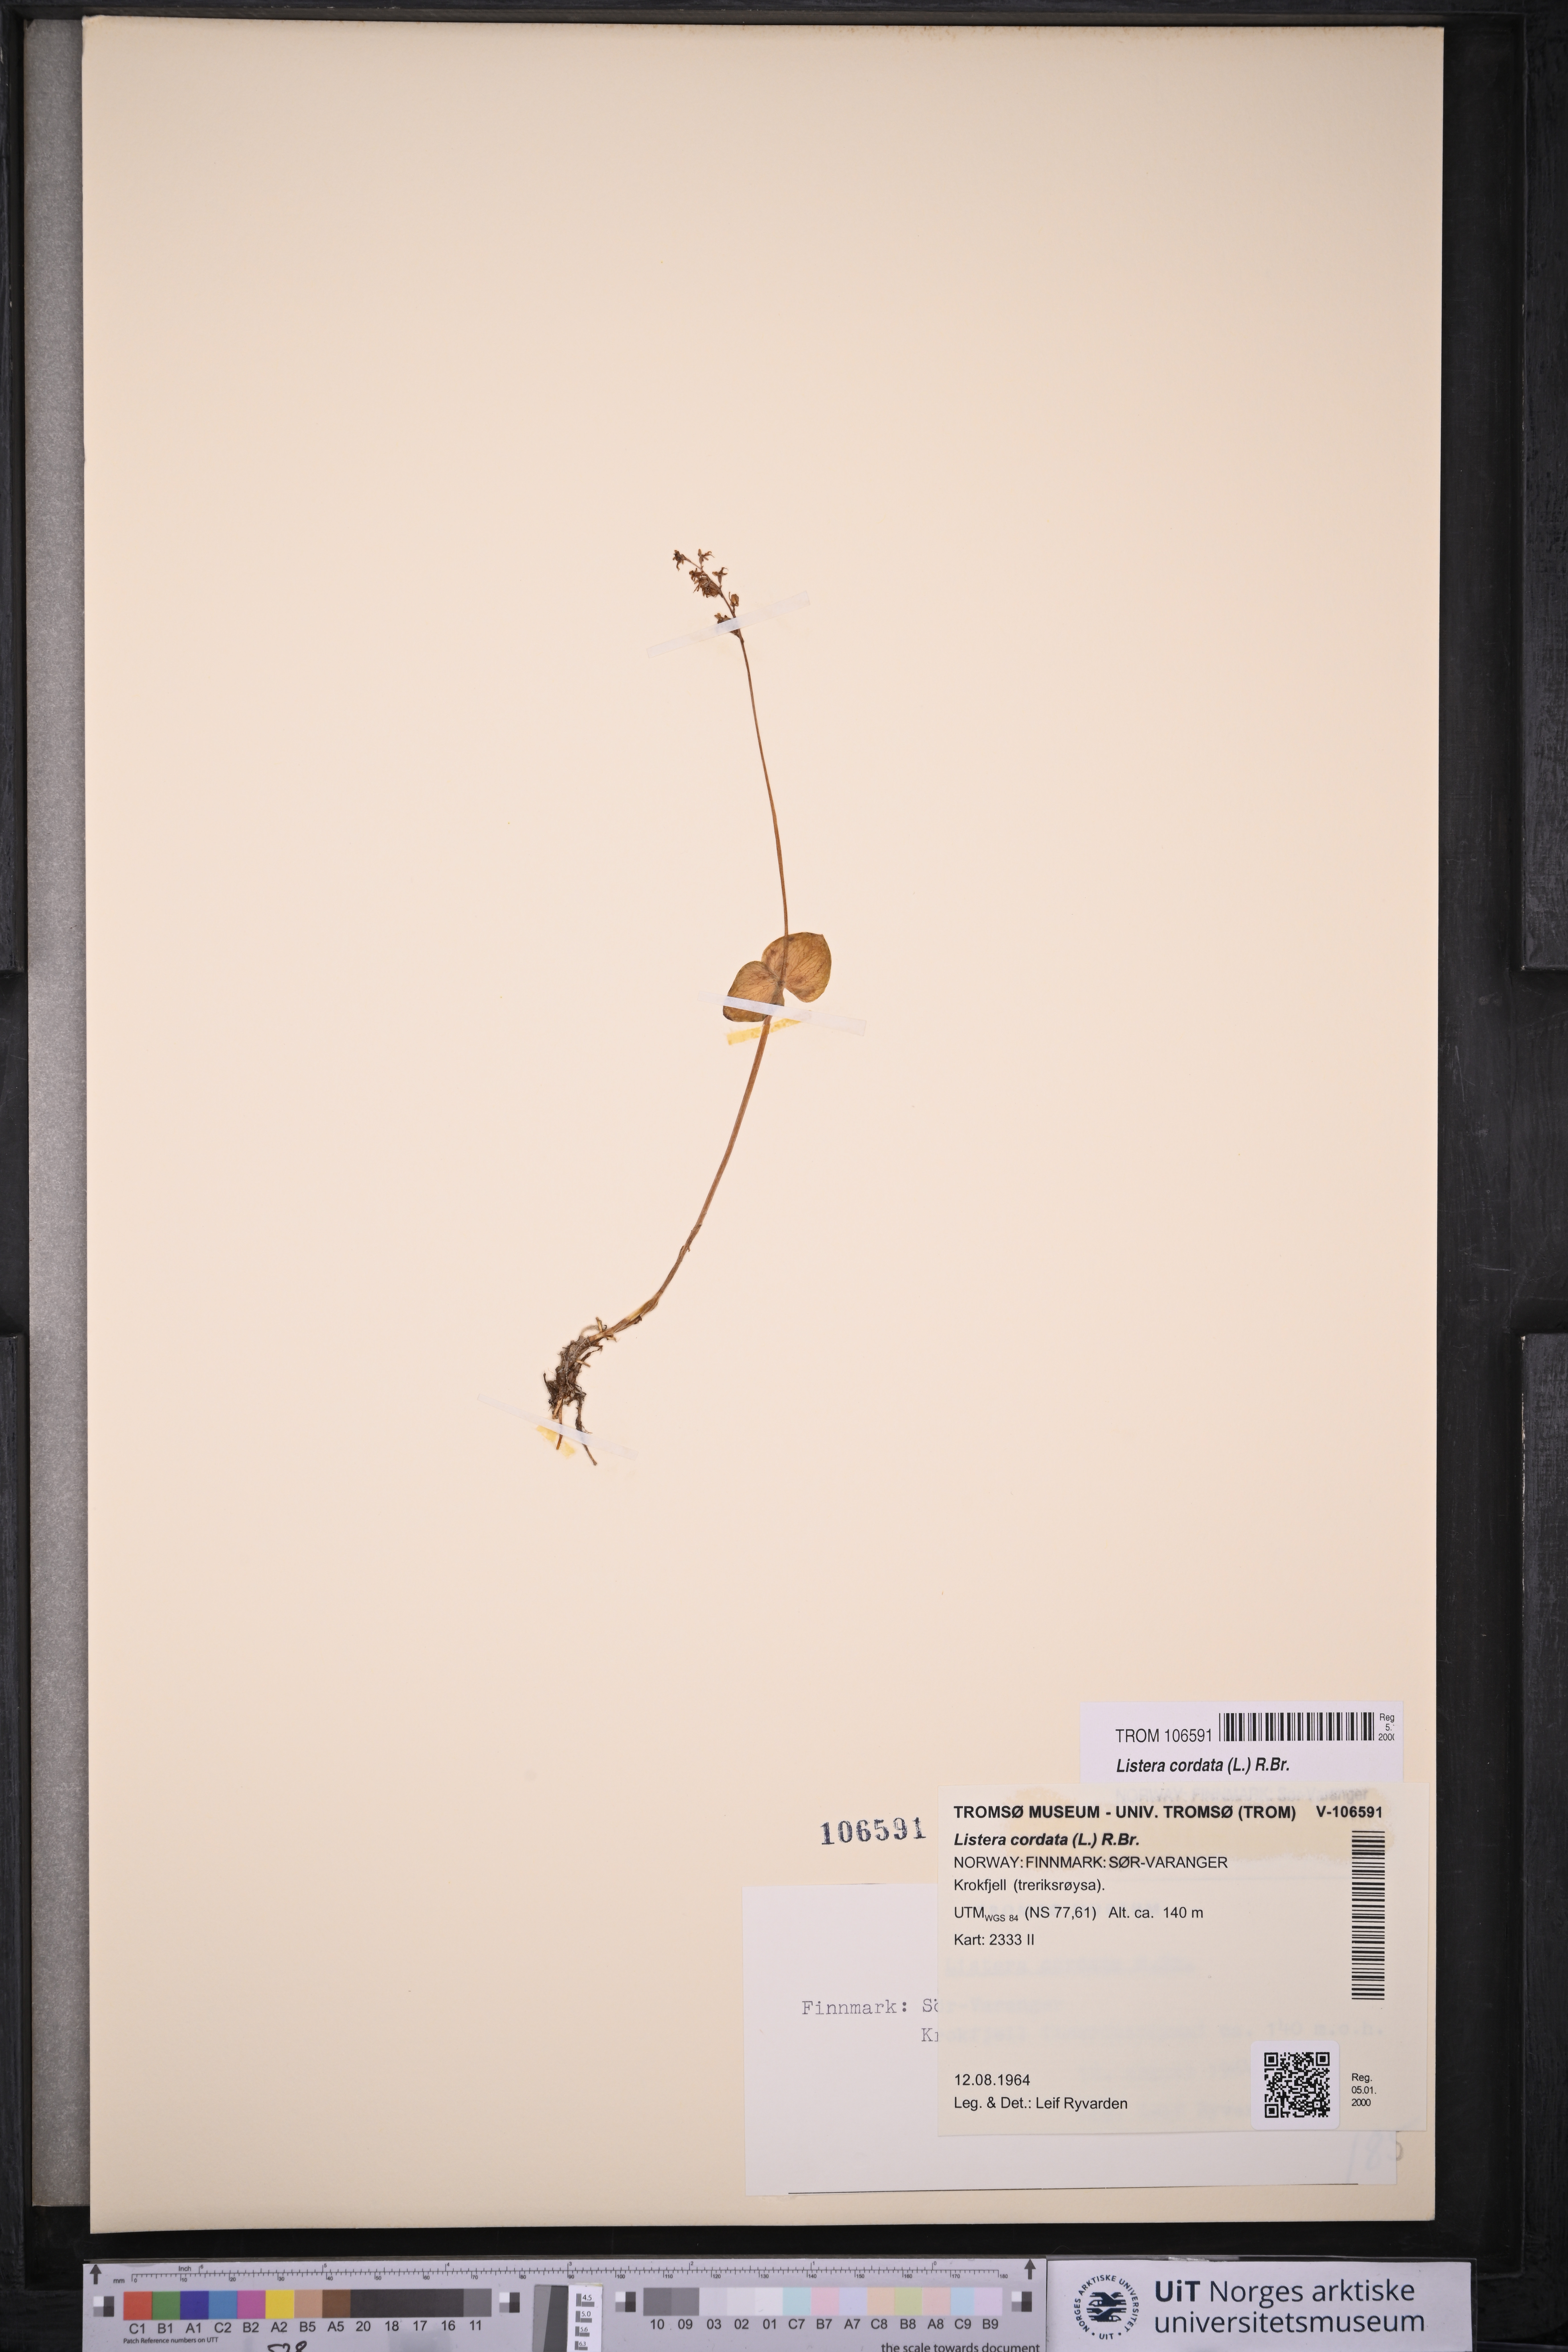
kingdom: Plantae
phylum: Tracheophyta
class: Liliopsida
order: Asparagales
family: Orchidaceae
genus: Neottia
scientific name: Neottia cordata
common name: Lesser twayblade
